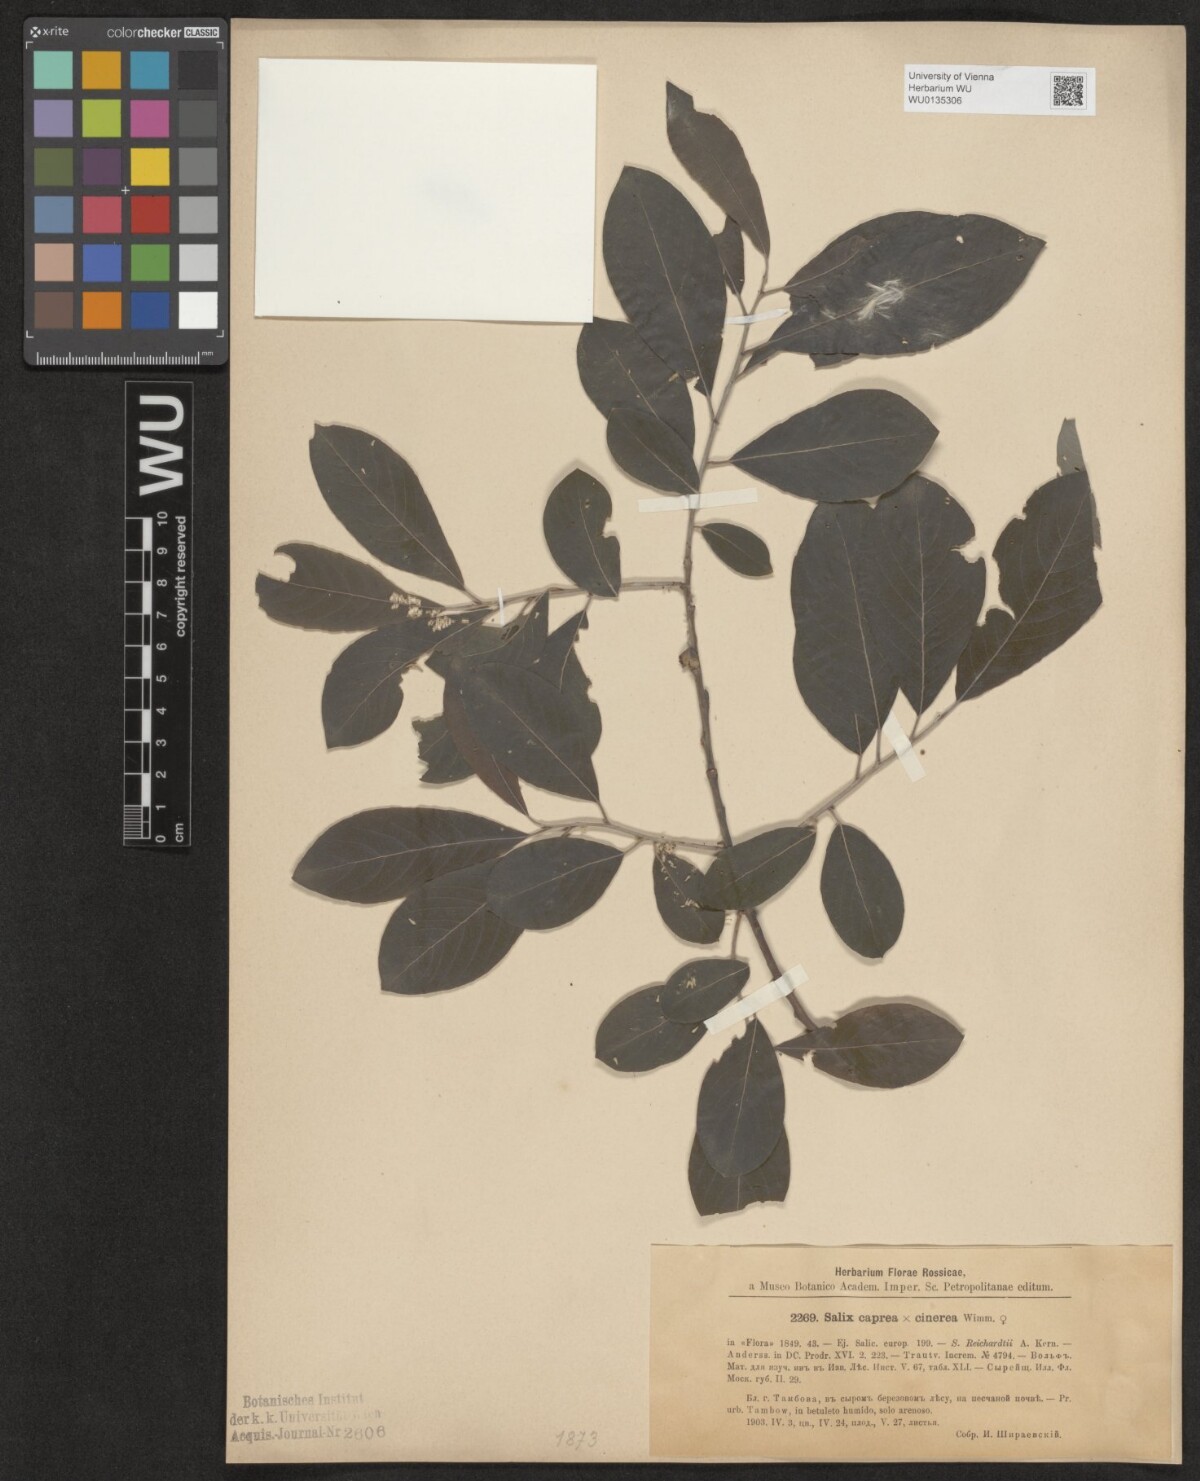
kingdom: Plantae
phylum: Tracheophyta
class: Magnoliopsida
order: Malpighiales
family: Salicaceae
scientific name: Salicaceae
